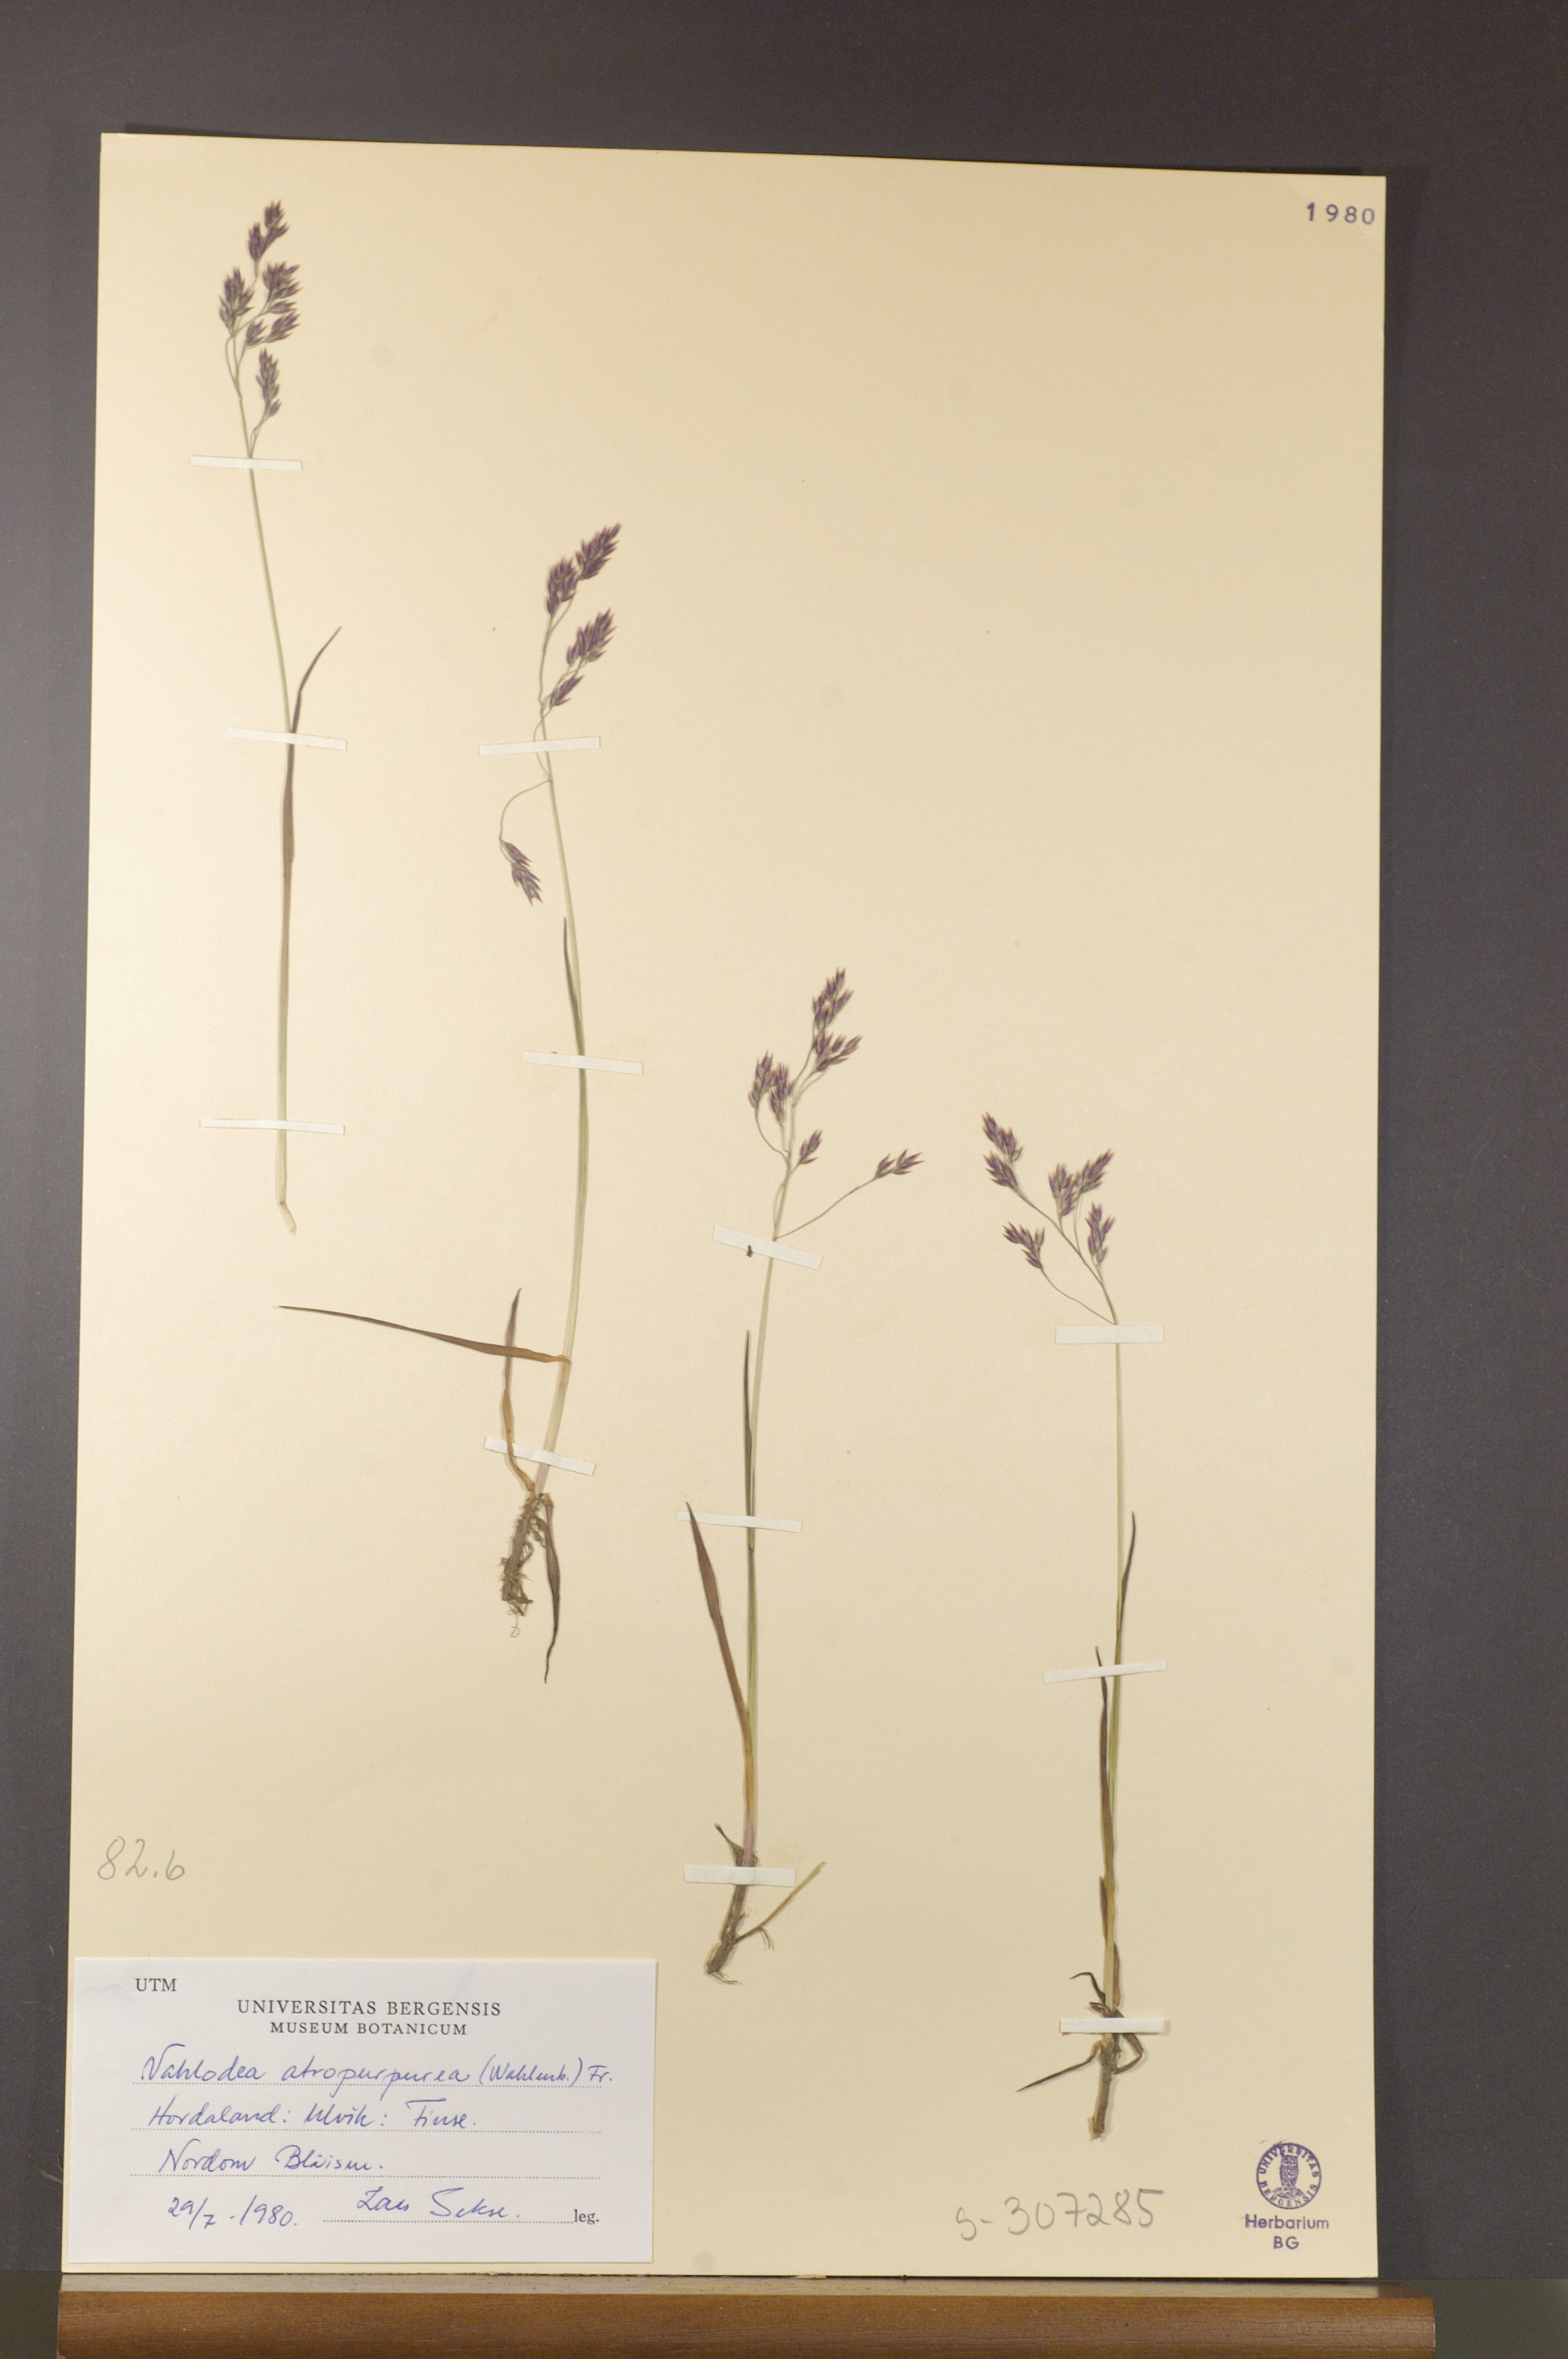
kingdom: Plantae
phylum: Tracheophyta
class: Liliopsida
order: Poales
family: Poaceae
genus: Vahlodea
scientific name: Vahlodea atropurpurea
